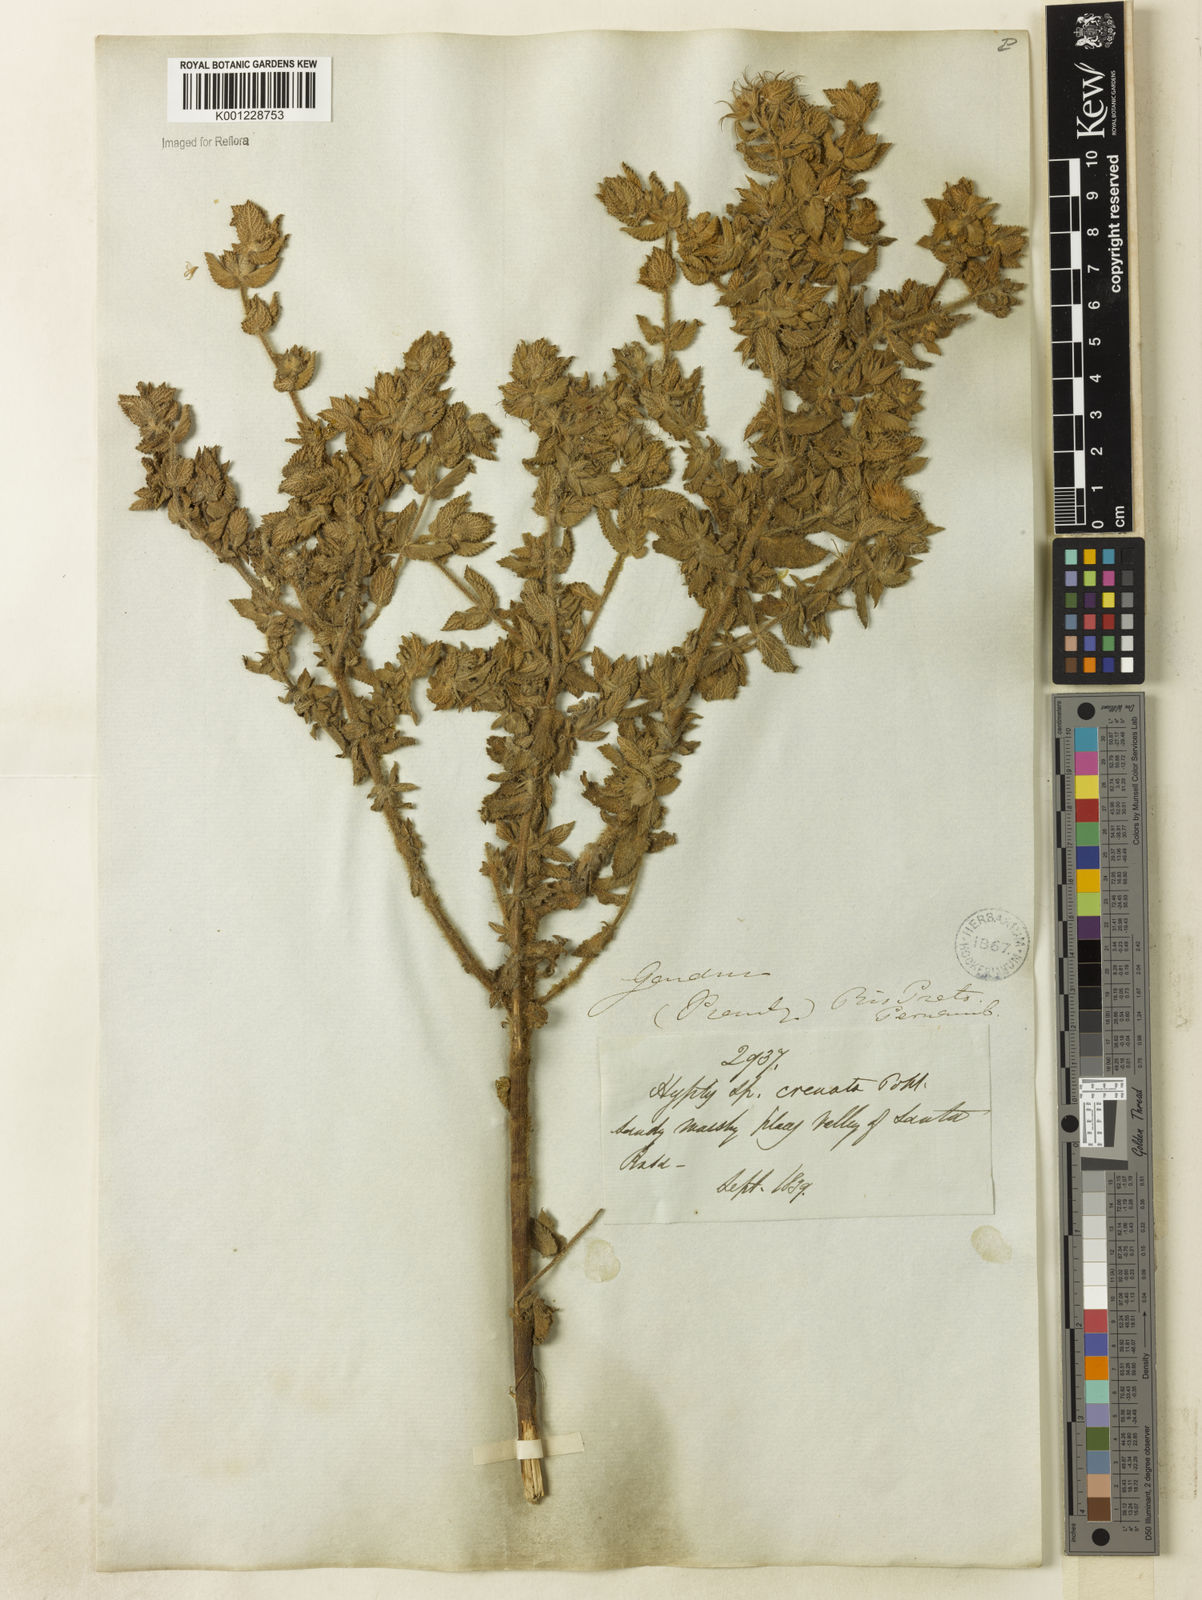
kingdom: Plantae
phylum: Tracheophyta
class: Magnoliopsida
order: Lamiales
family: Lamiaceae
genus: Hyptis
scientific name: Hyptis crenata
